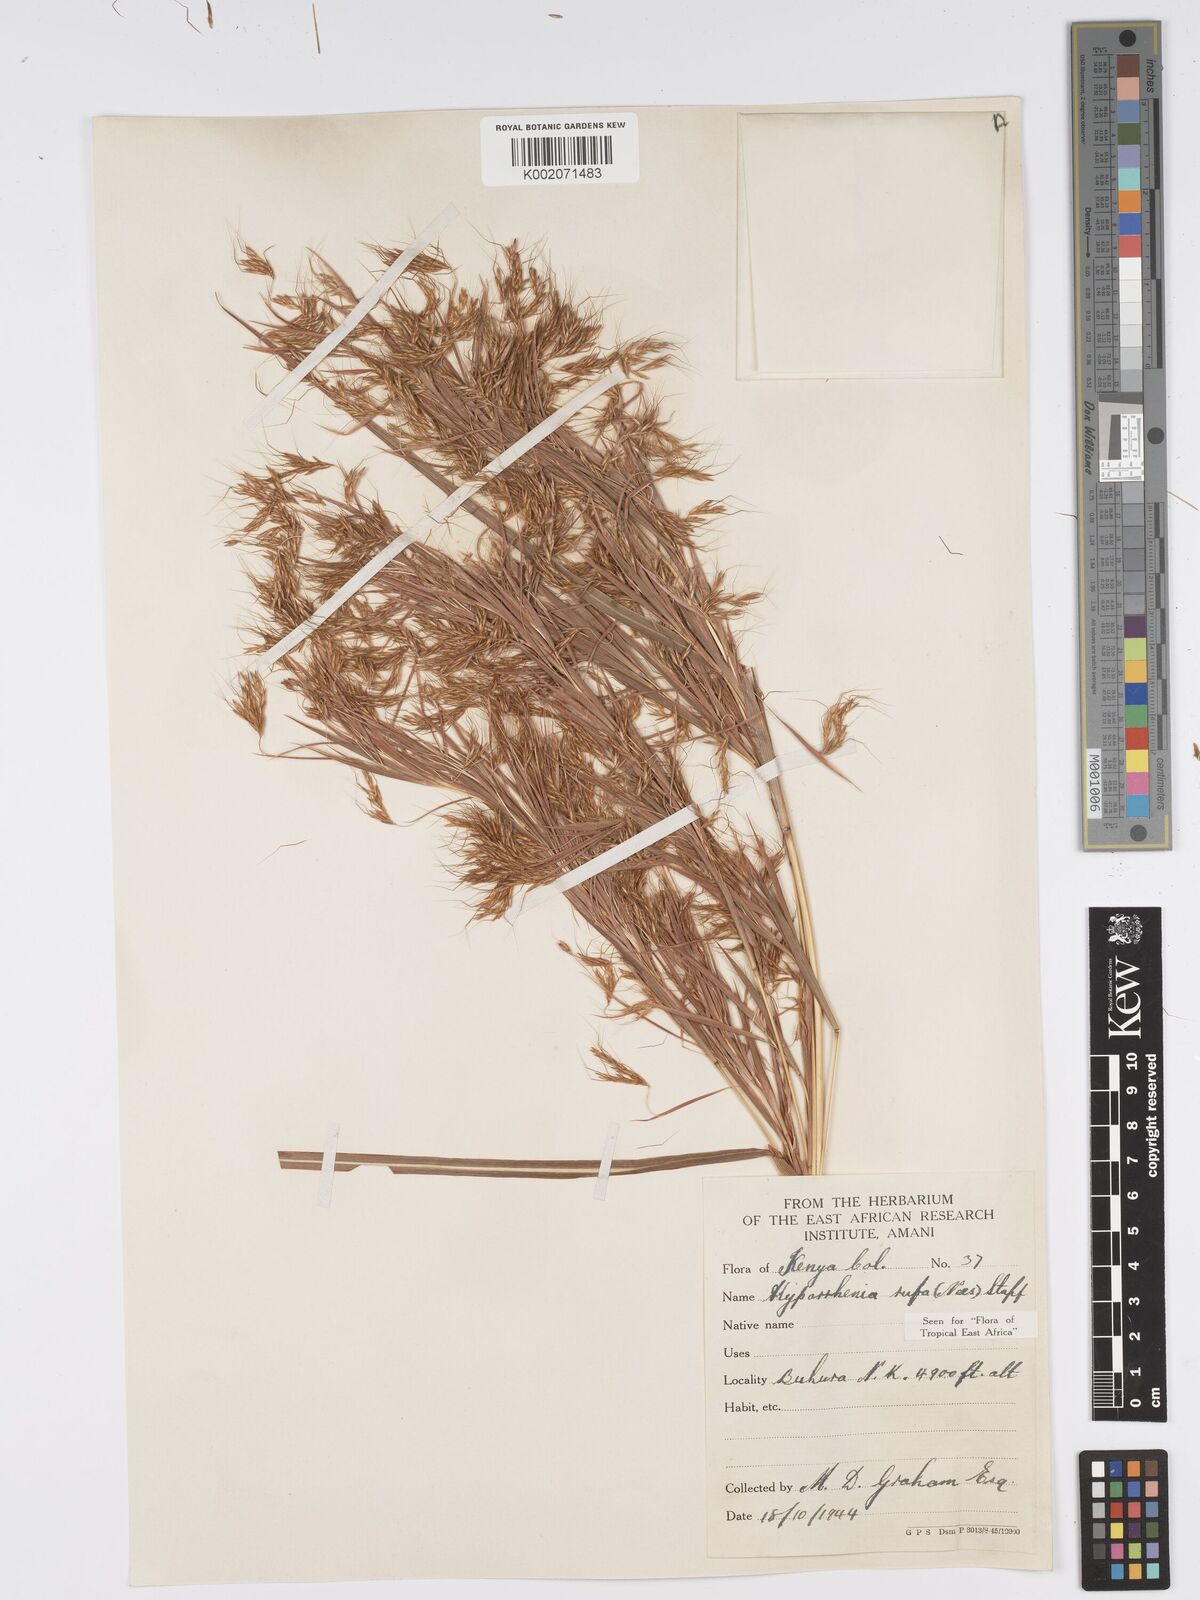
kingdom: Plantae
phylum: Tracheophyta
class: Liliopsida
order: Poales
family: Poaceae
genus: Hyparrhenia
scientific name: Hyparrhenia rufa
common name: Jaraguagrass
